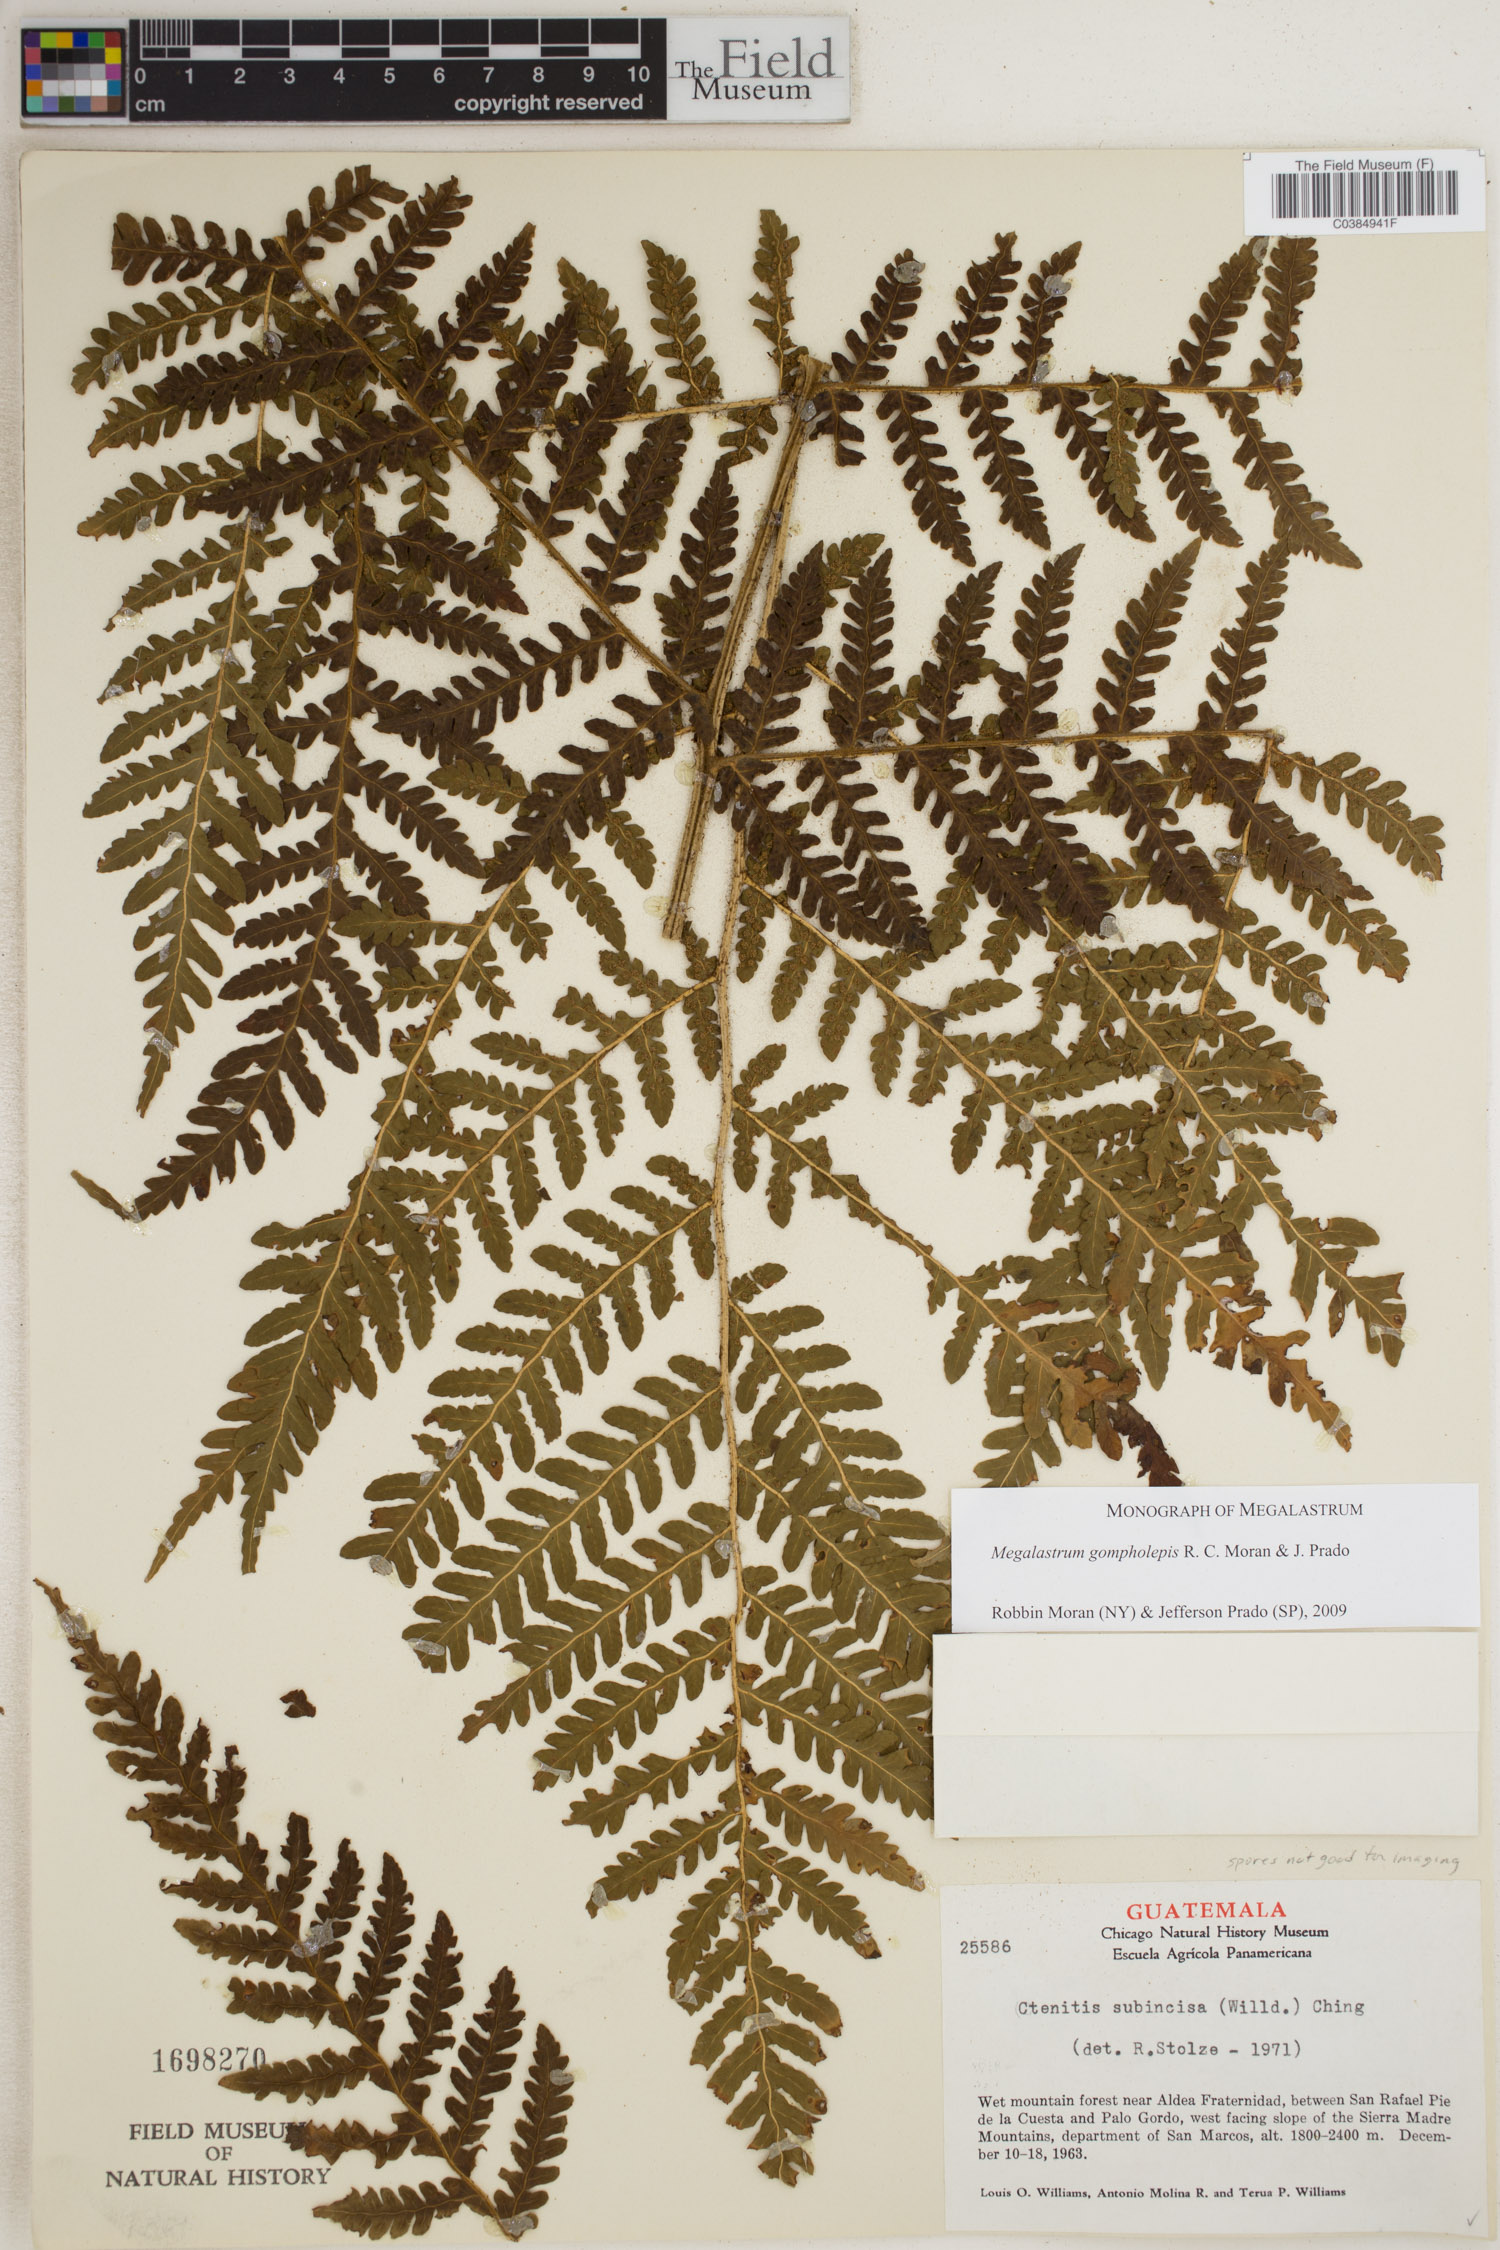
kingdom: Plantae
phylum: Tracheophyta
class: Polypodiopsida
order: Polypodiales
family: Dryopteridaceae
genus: Megalastrum
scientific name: Megalastrum gompholepis
